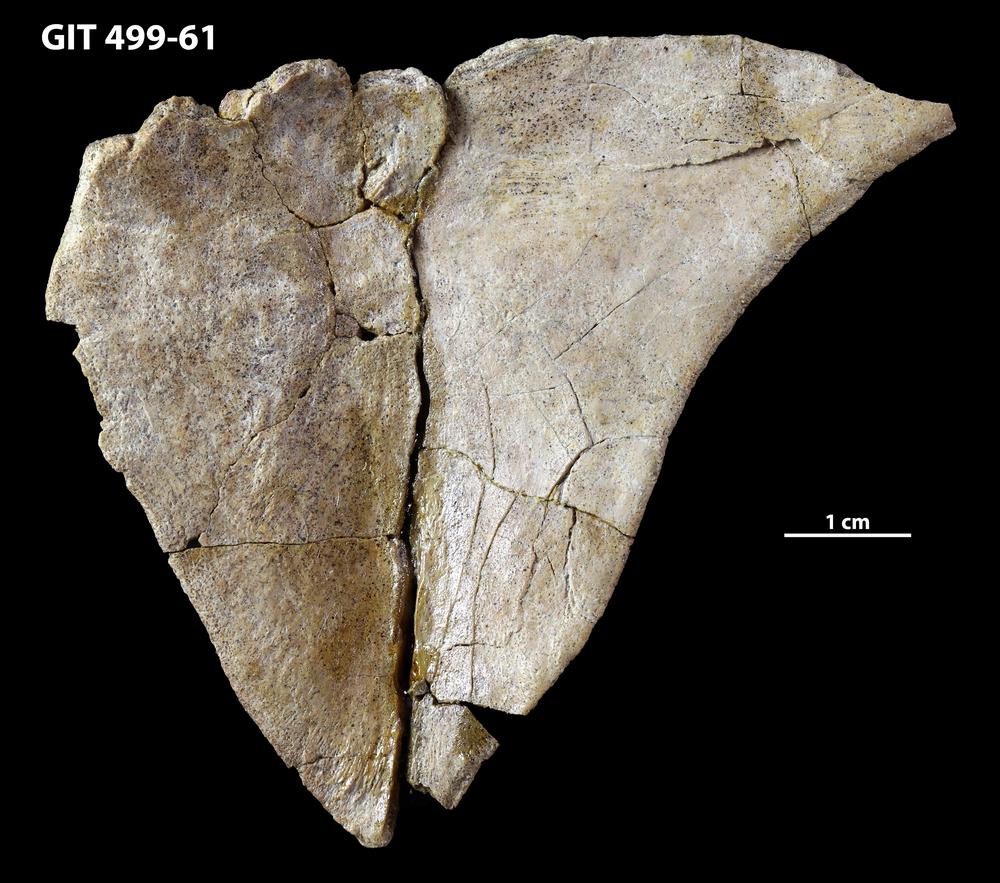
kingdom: Animalia
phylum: Chordata
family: Holoptychiidae
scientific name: Holoptychiidae
